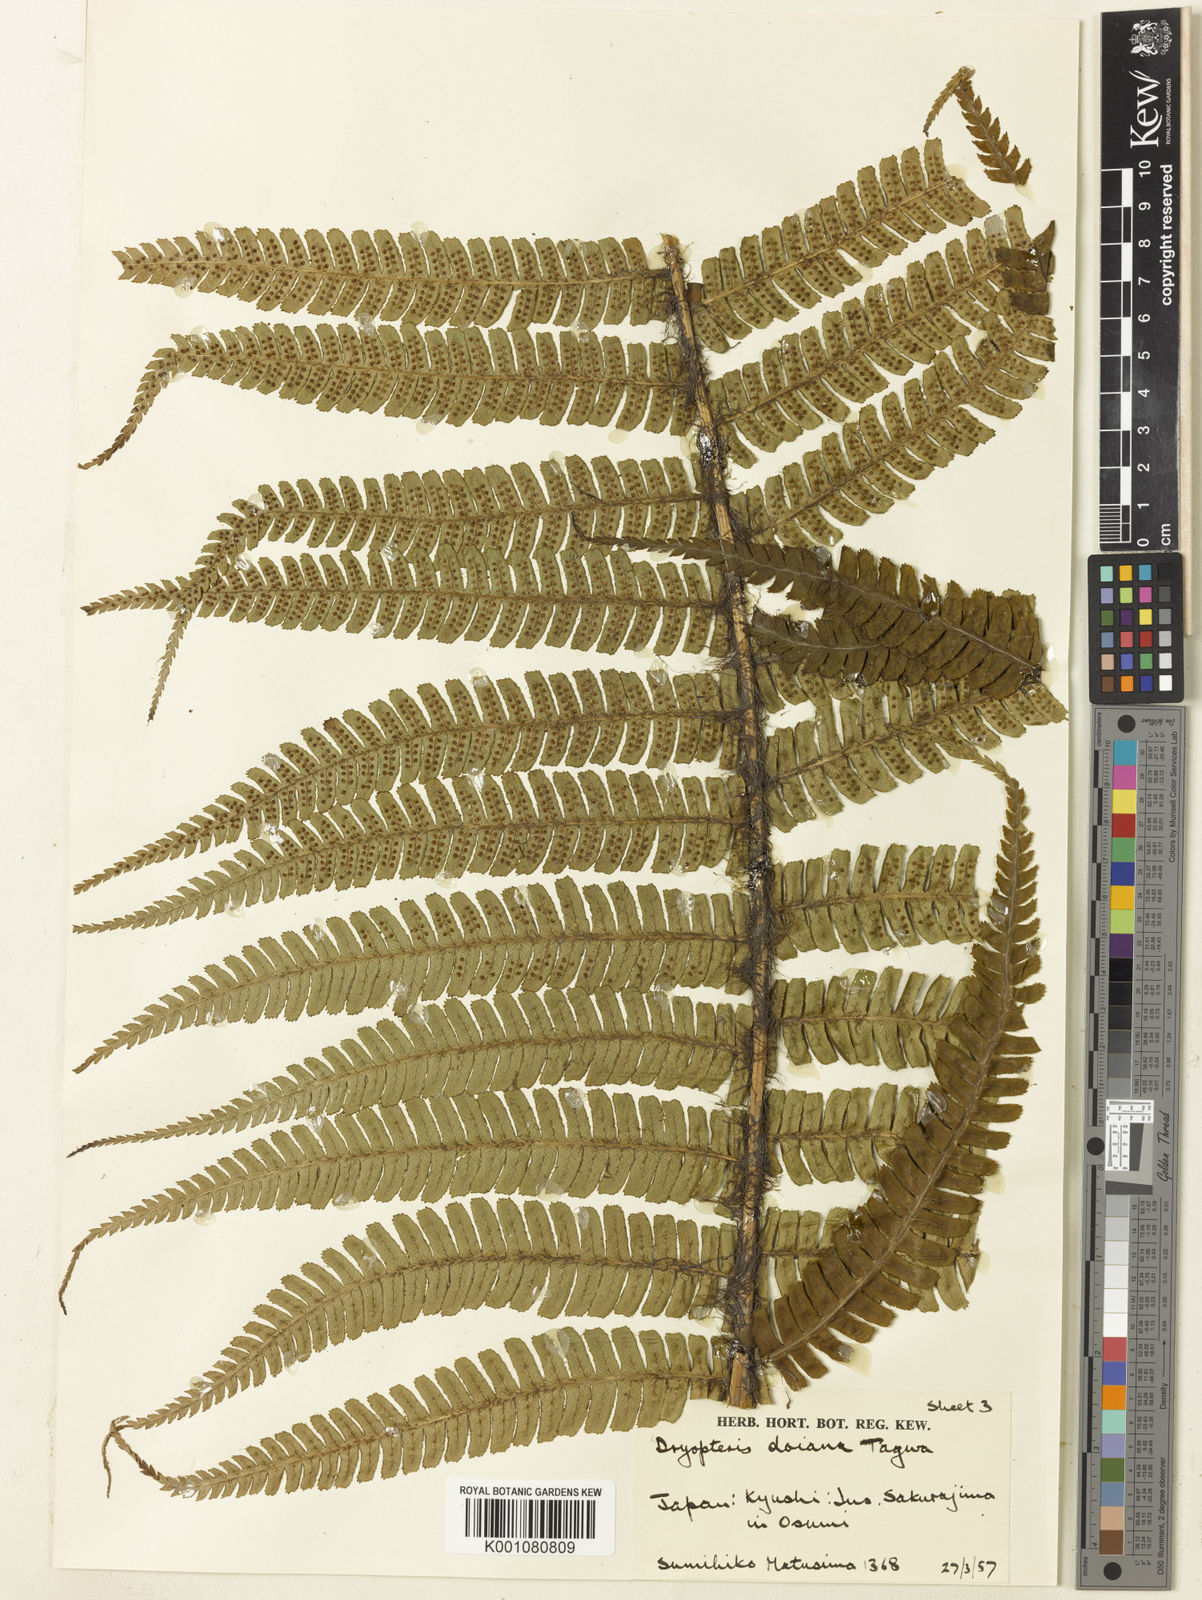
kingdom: Plantae
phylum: Tracheophyta
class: Polypodiopsida
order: Polypodiales
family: Dryopteridaceae
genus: Dryopteris
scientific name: Dryopteris wallichiana
